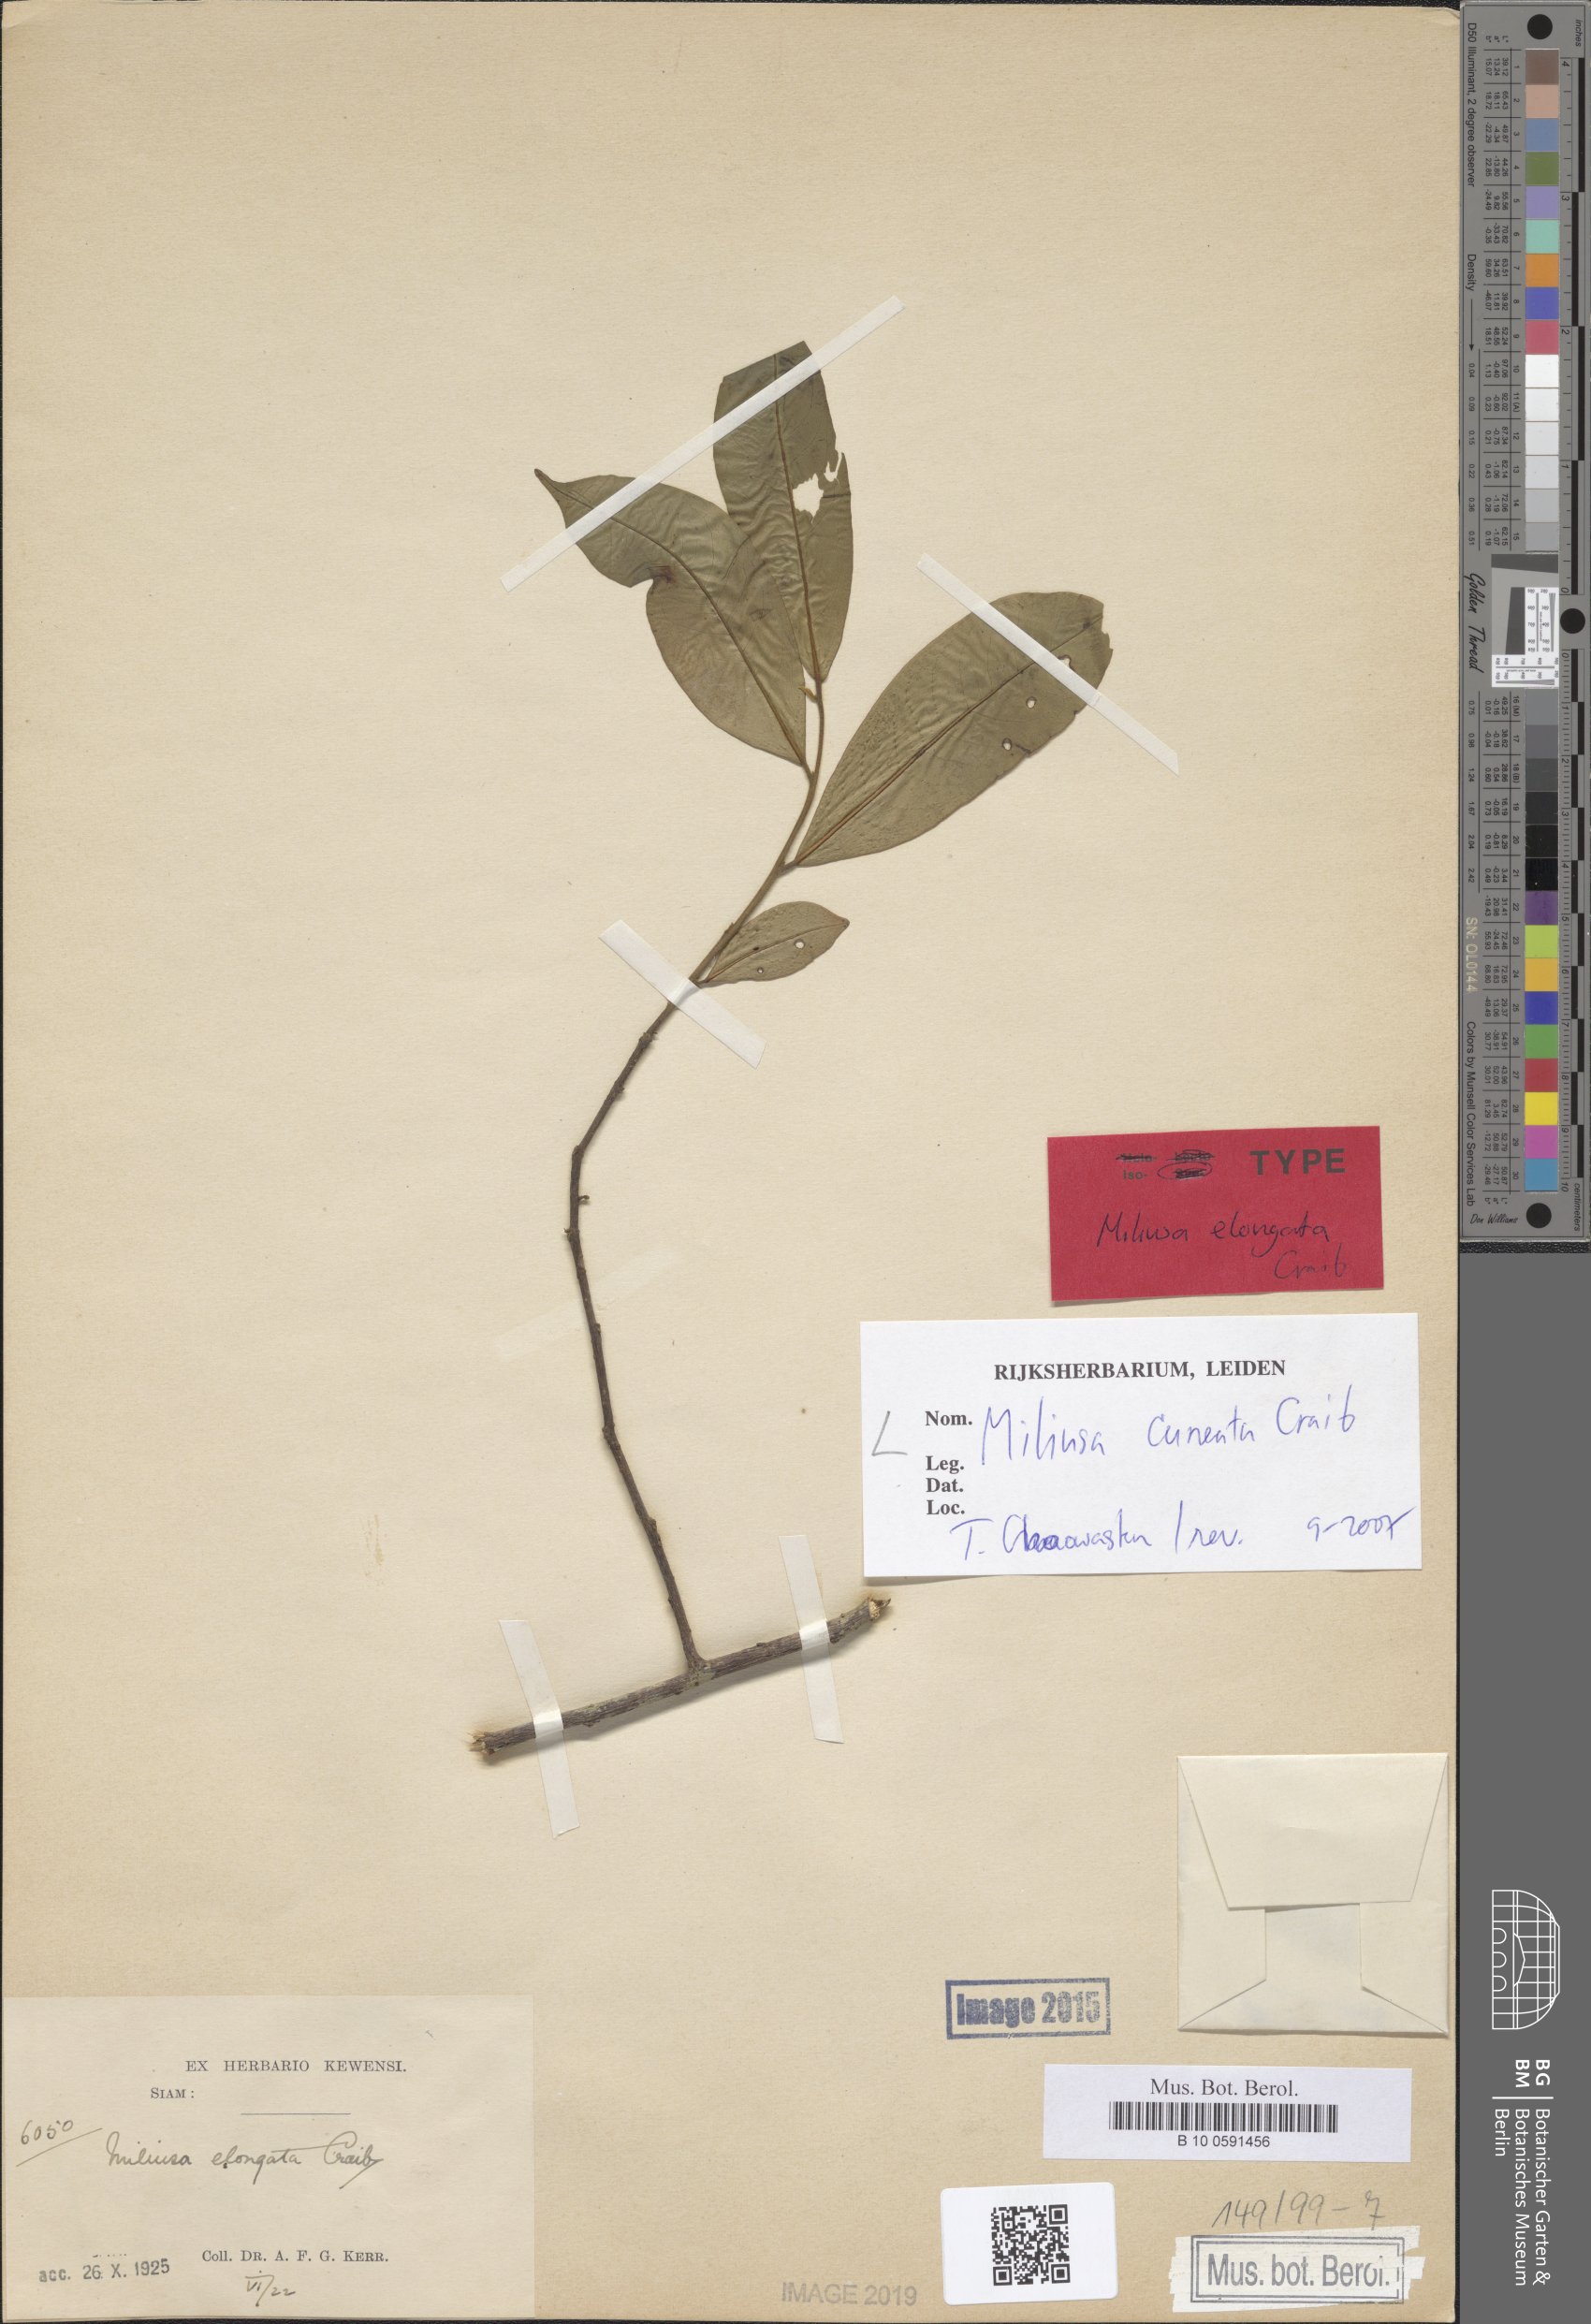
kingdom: Plantae
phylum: Tracheophyta
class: Magnoliopsida
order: Magnoliales
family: Annonaceae
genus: Miliusa
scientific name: Miliusa cuneata
